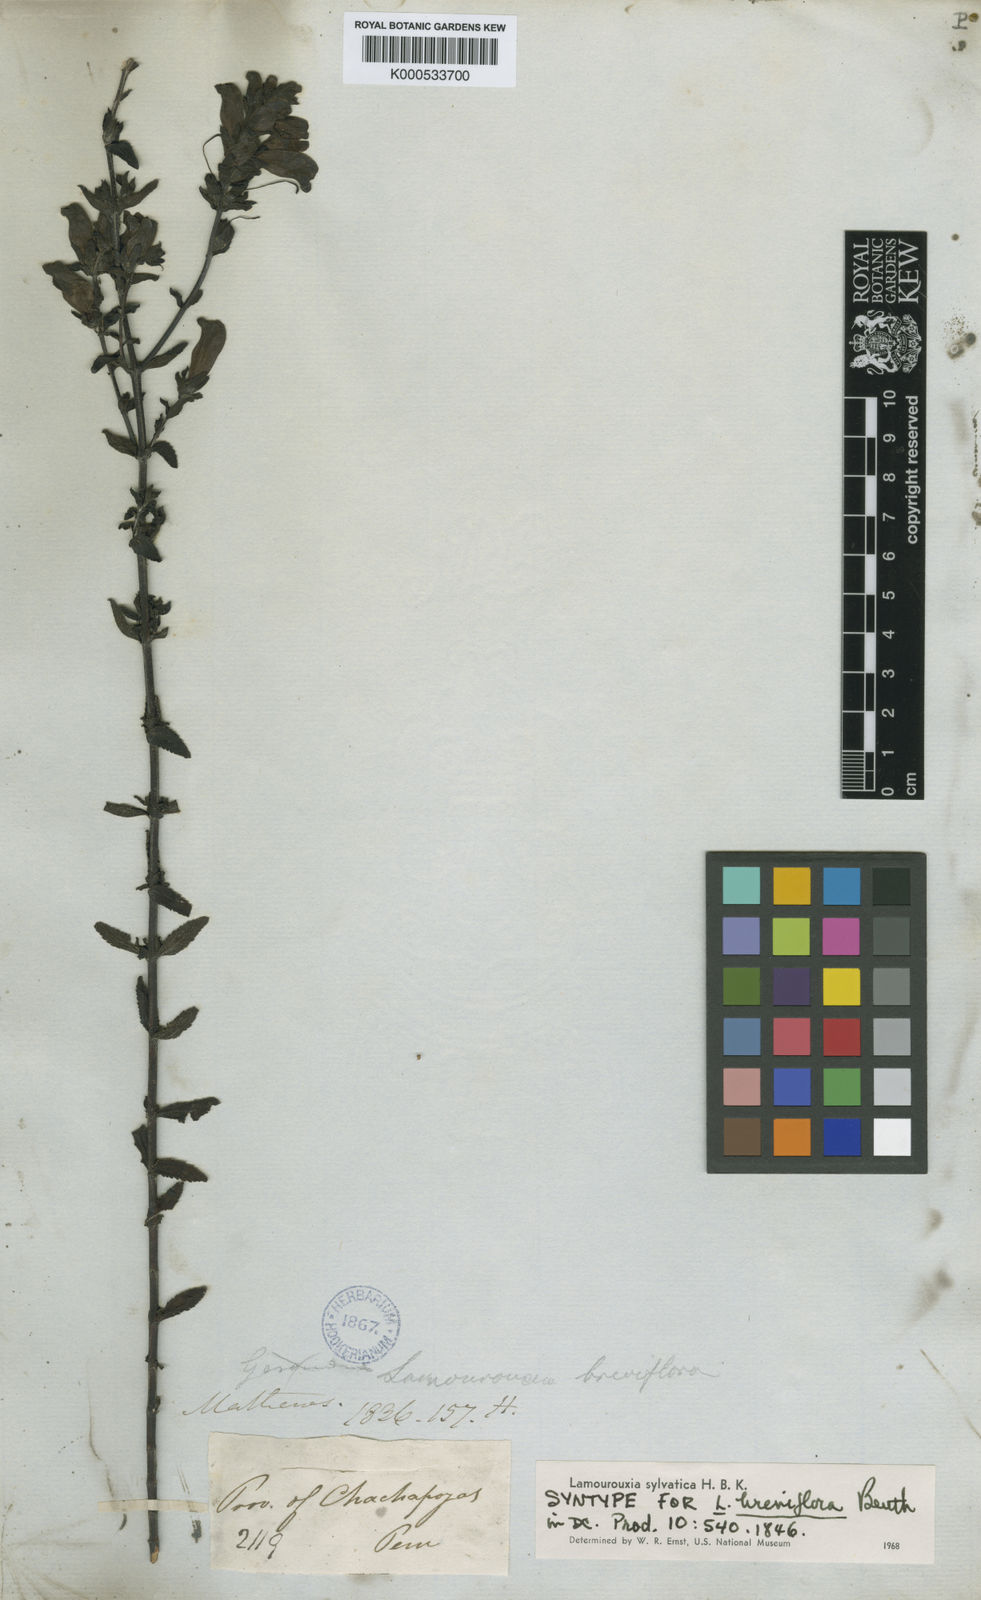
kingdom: Plantae
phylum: Tracheophyta
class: Magnoliopsida
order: Lamiales
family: Orobanchaceae
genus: Lamourouxia
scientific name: Lamourouxia sylvatica
